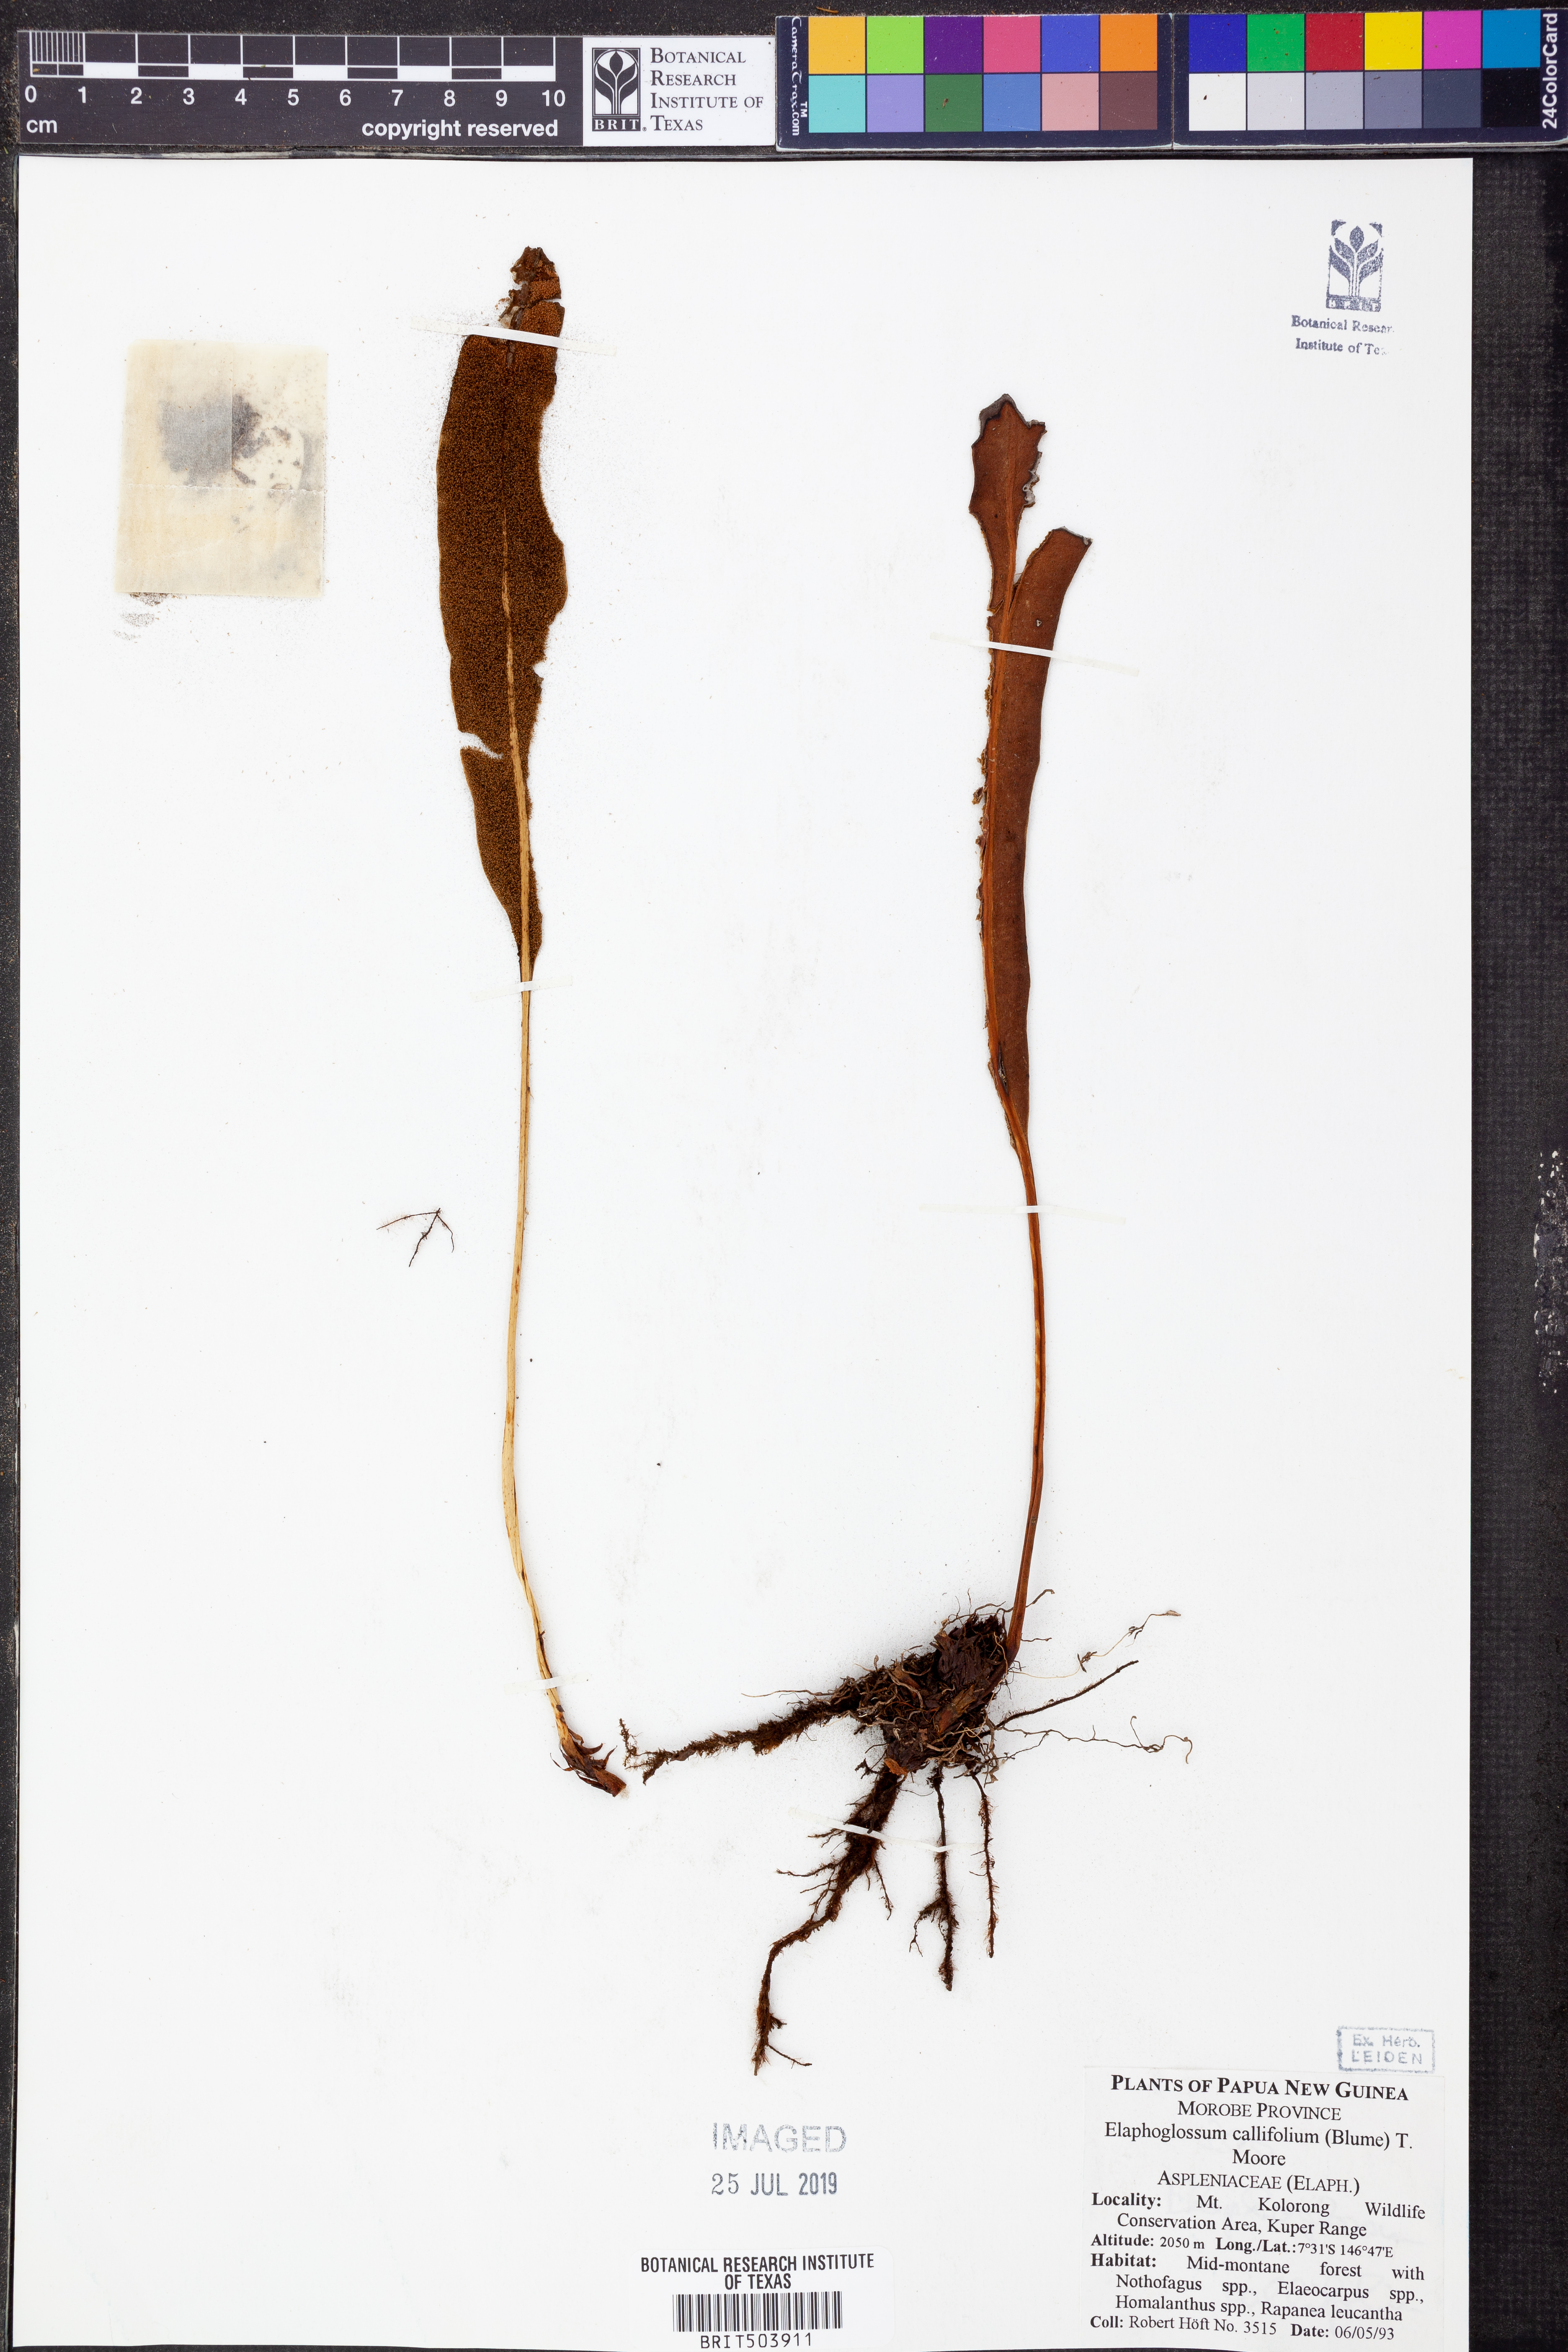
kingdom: Plantae
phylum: Tracheophyta
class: Polypodiopsida
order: Polypodiales
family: Dryopteridaceae
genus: Elaphoglossum
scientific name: Elaphoglossum callifolium
